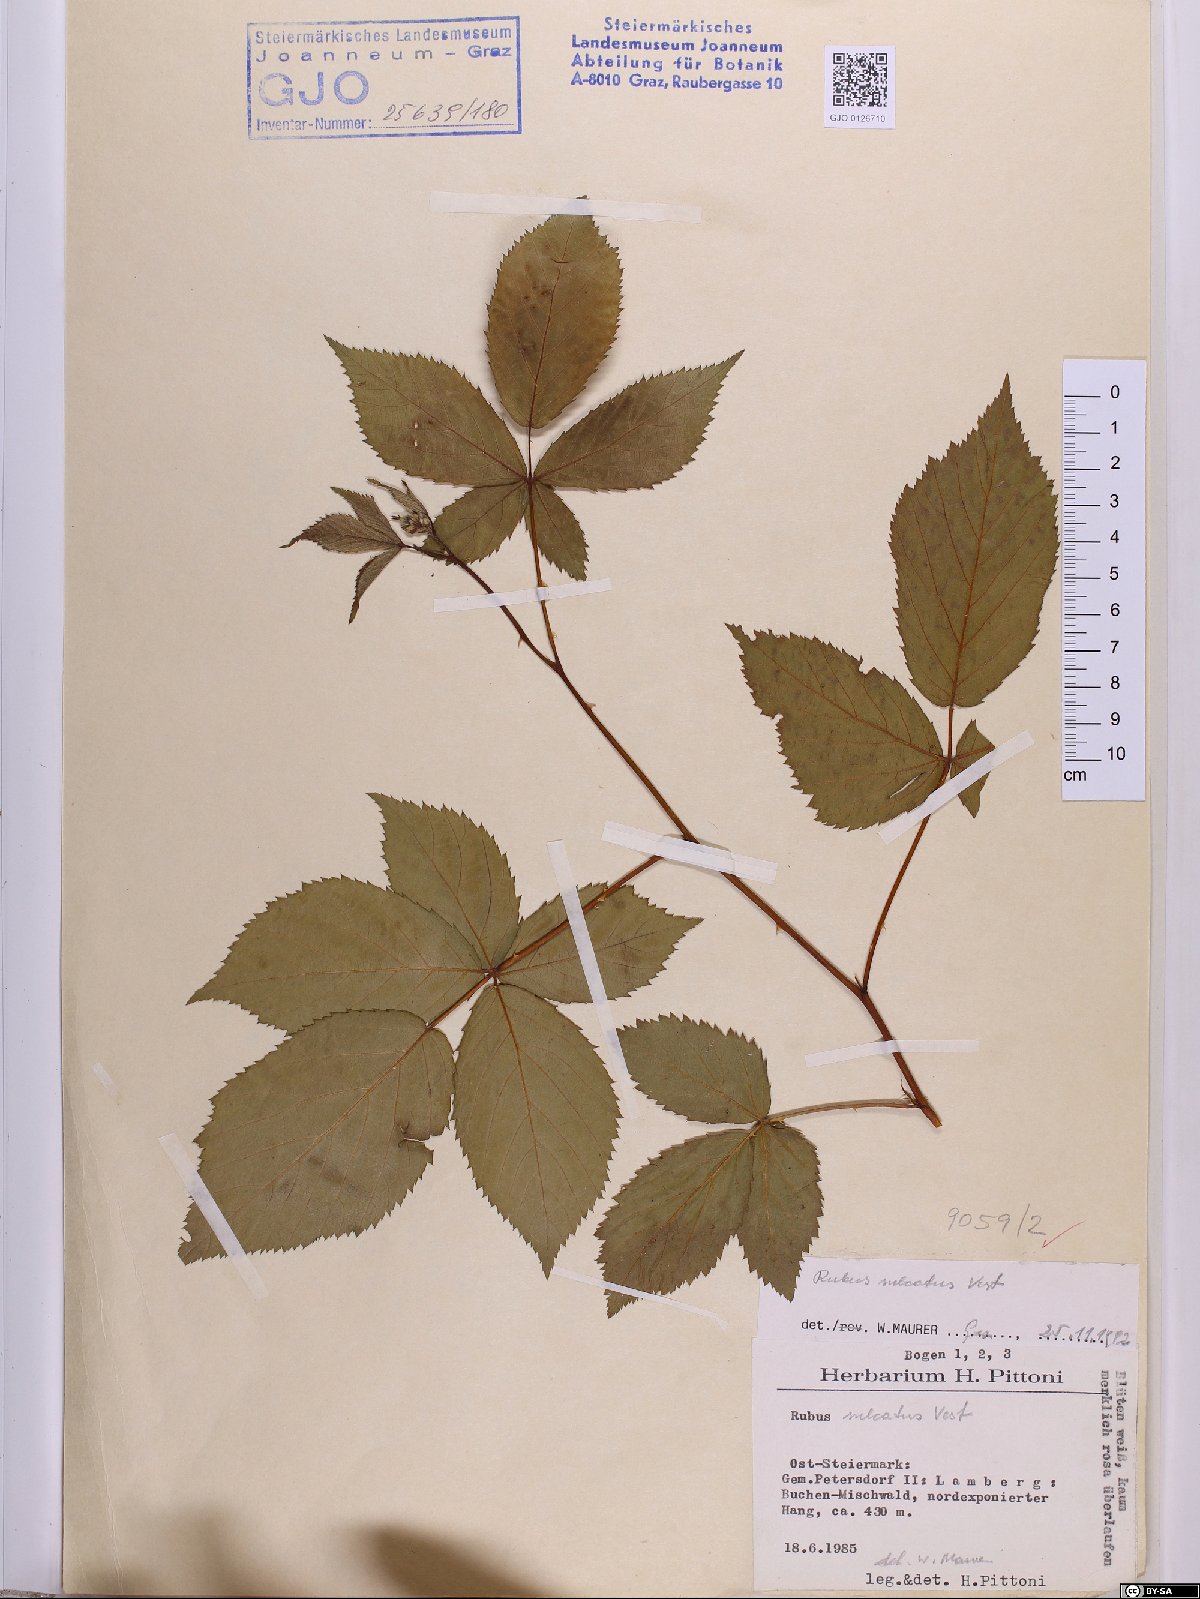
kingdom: Plantae
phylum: Tracheophyta
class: Magnoliopsida
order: Rosales
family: Rosaceae
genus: Rubus
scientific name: Rubus sulcatus
